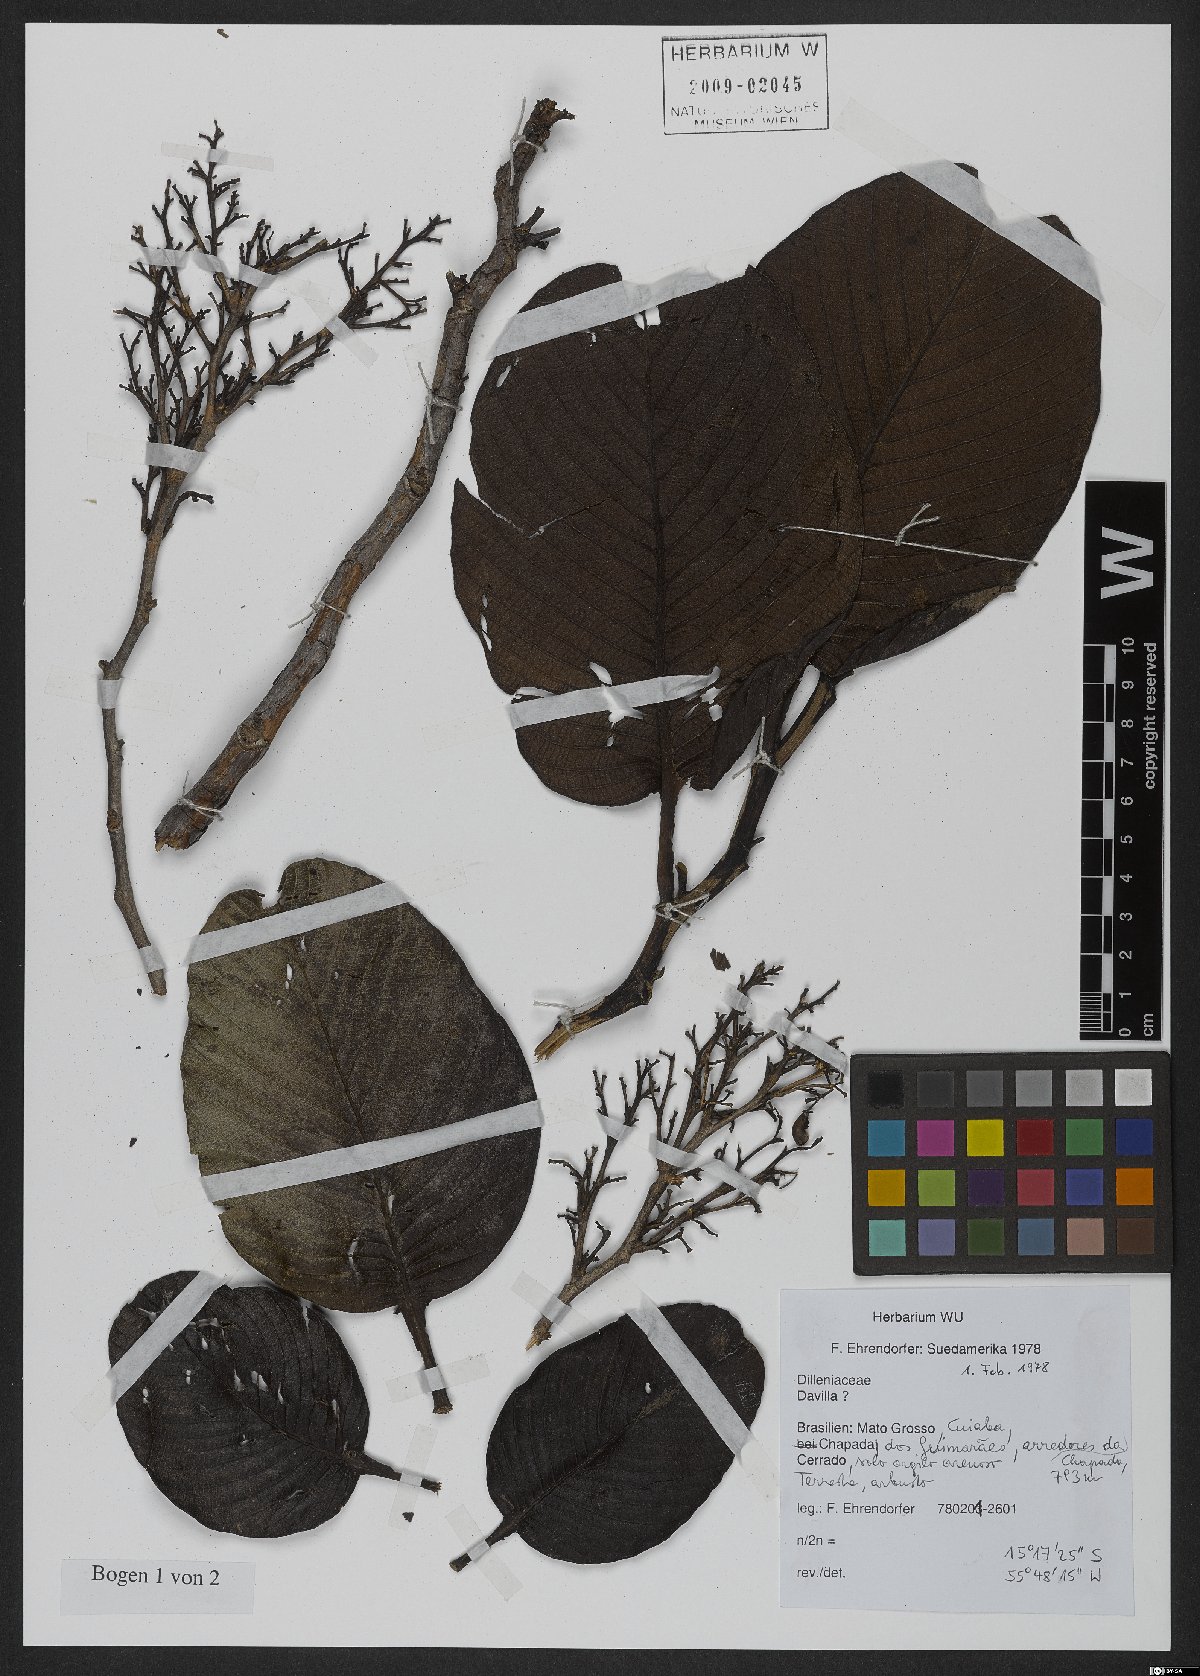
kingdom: Plantae
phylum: Tracheophyta
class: Magnoliopsida
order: Dilleniales
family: Dilleniaceae
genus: Davilla
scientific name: Davilla
